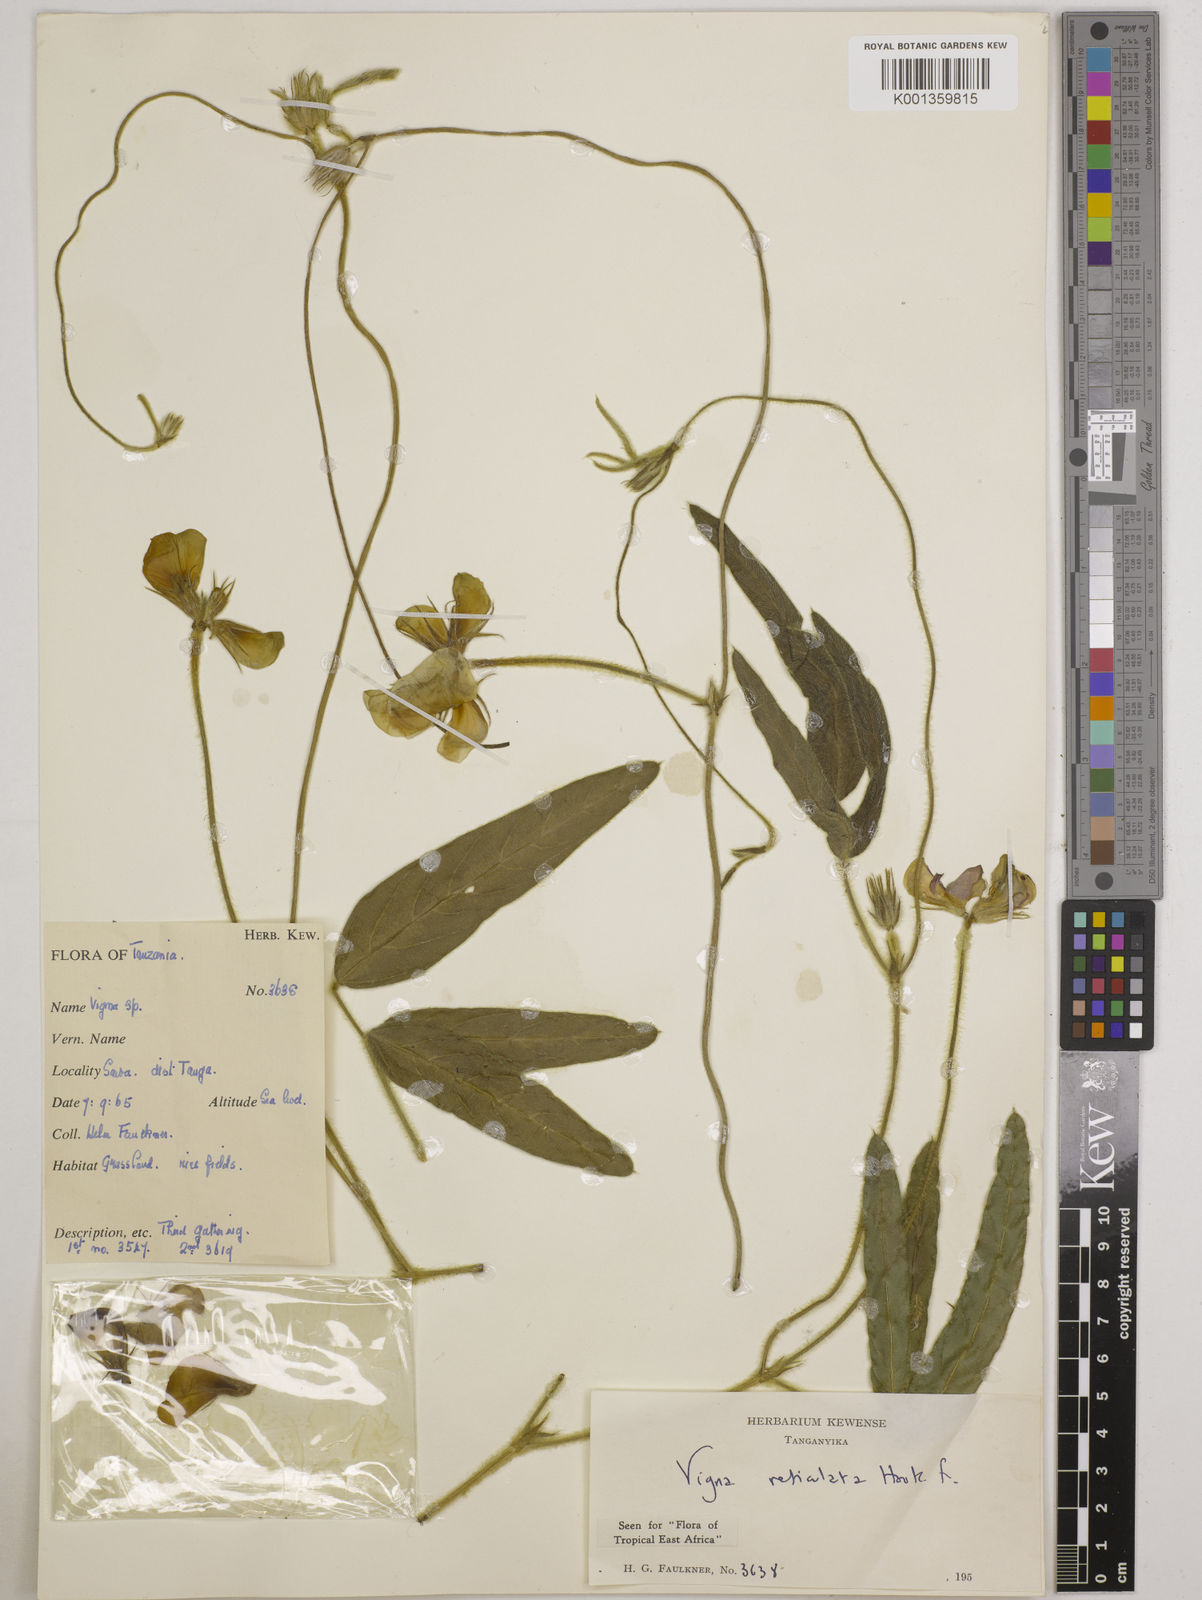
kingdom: Plantae
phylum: Tracheophyta
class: Magnoliopsida
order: Fabales
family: Fabaceae
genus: Vigna
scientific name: Vigna reticulata
